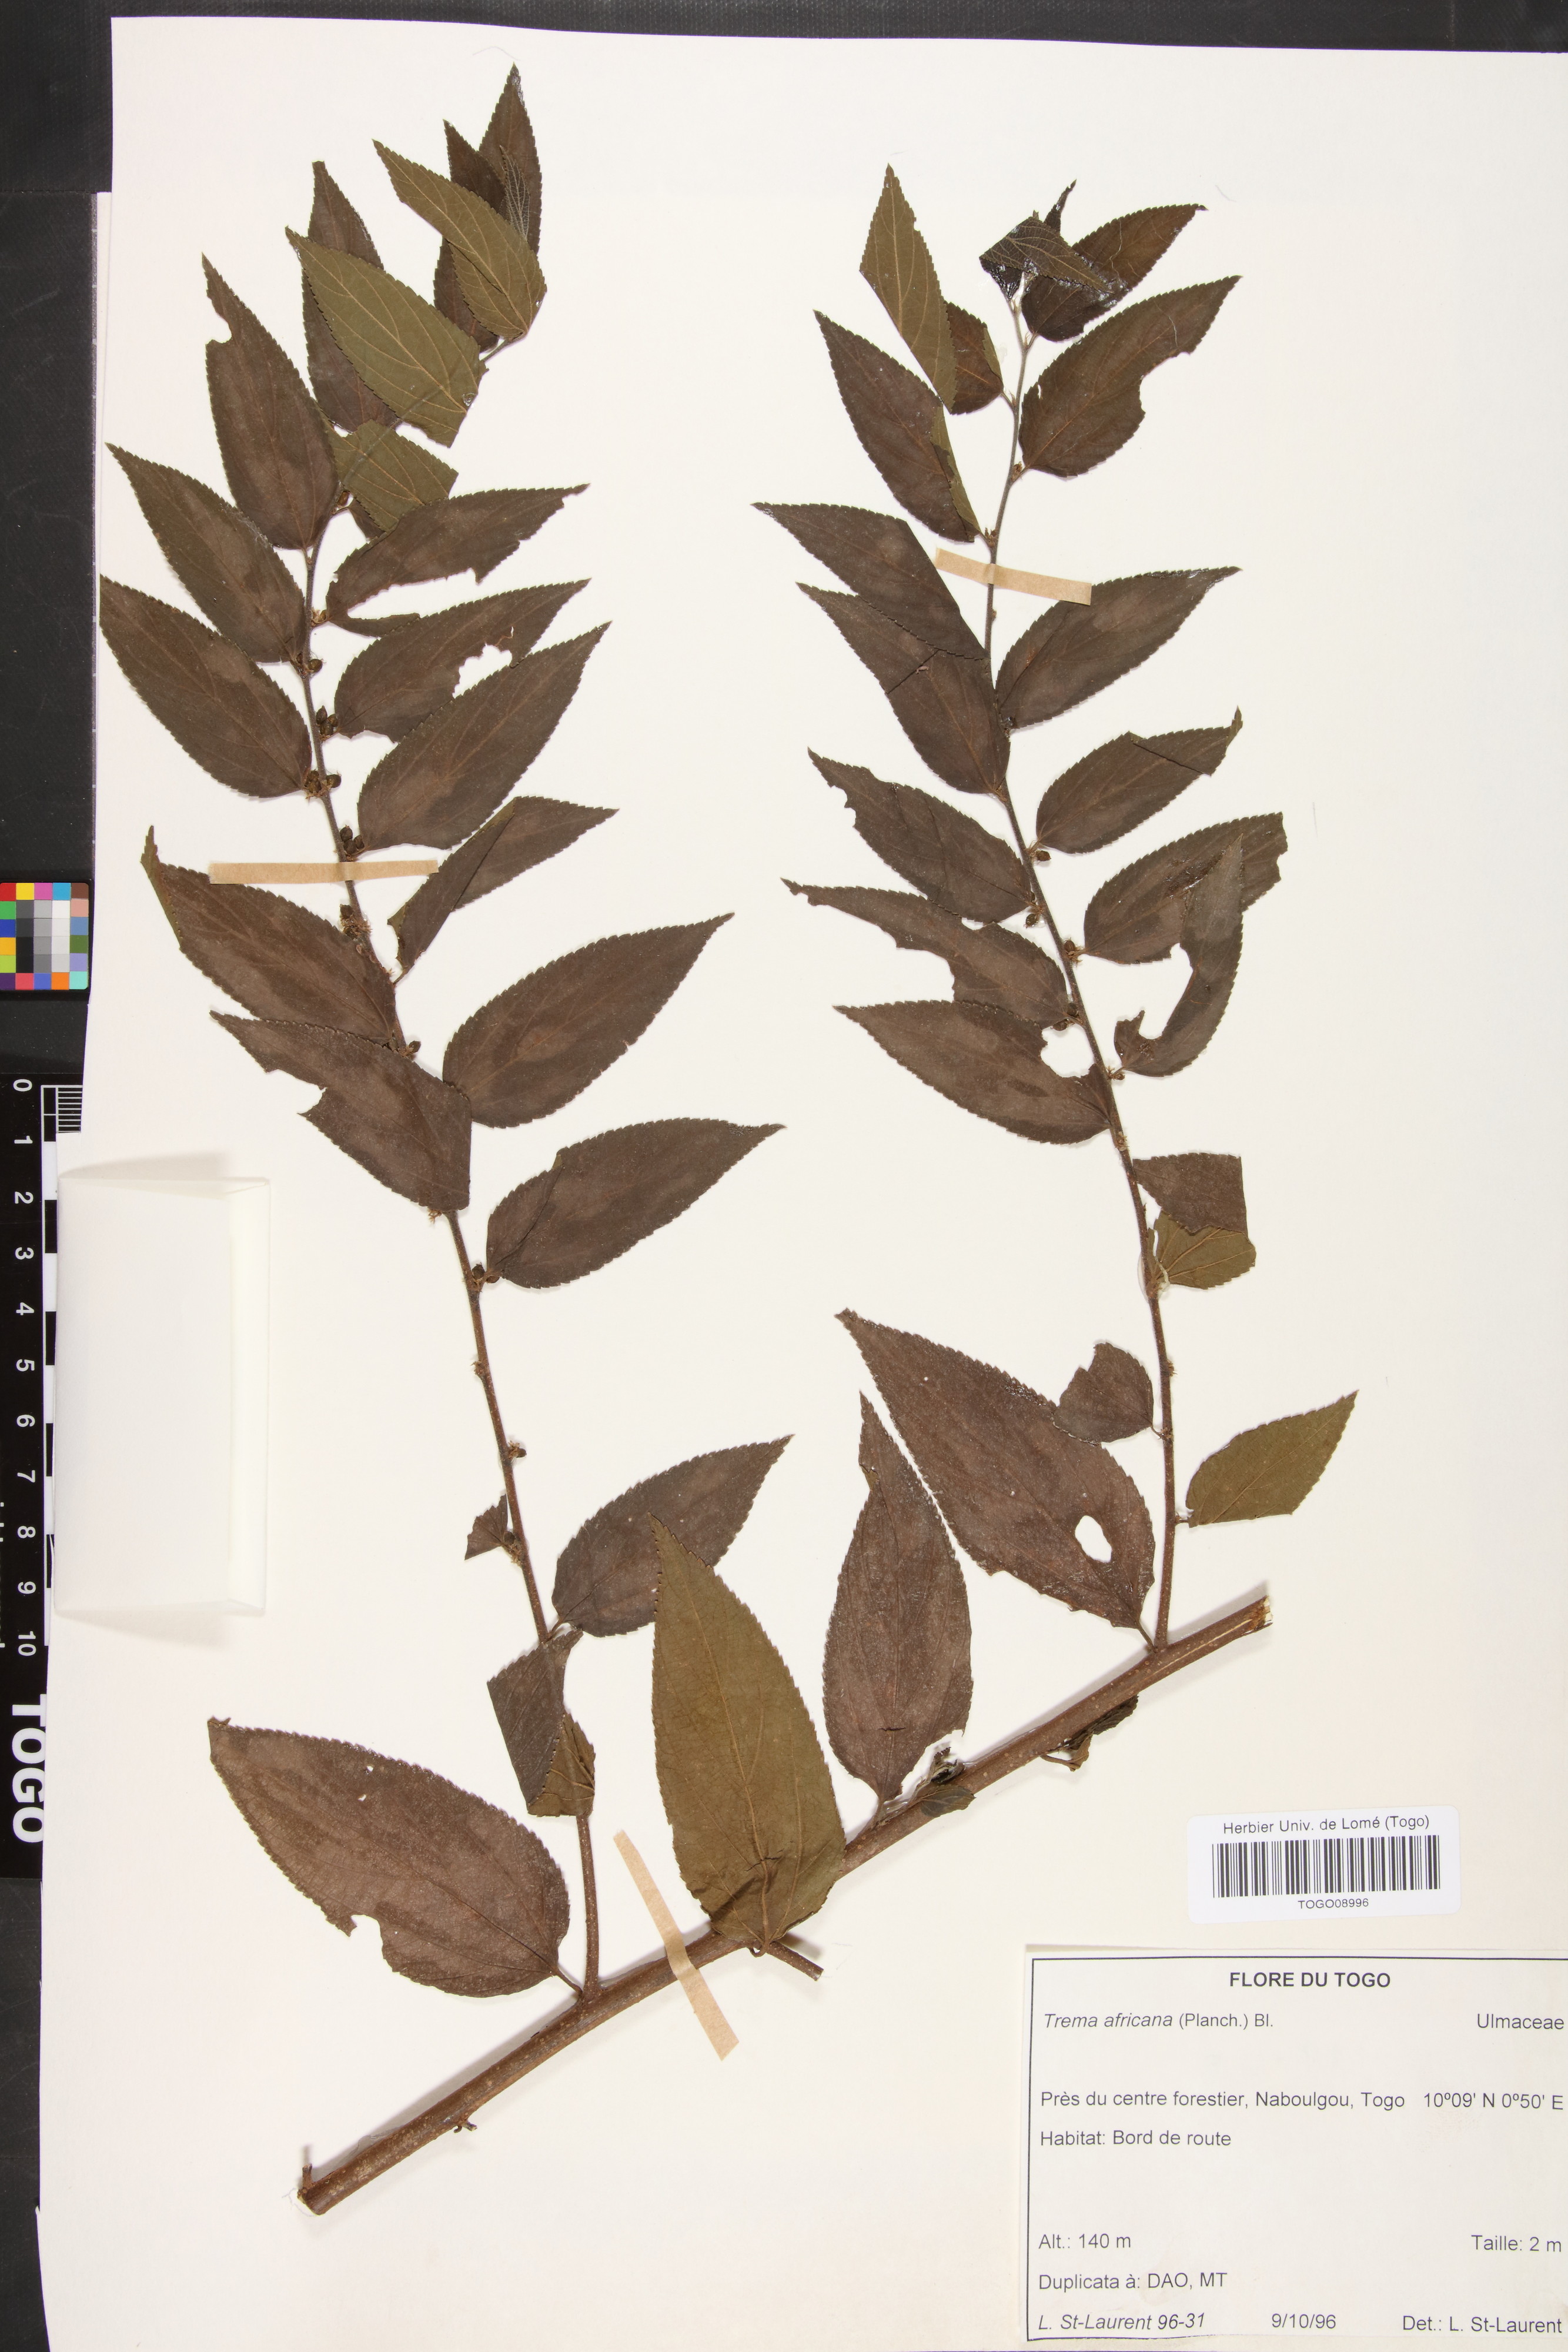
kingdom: Plantae
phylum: Tracheophyta
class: Magnoliopsida
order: Rosales
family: Cannabaceae
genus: Trema
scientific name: Trema orientale
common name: Indian charcoal tree
